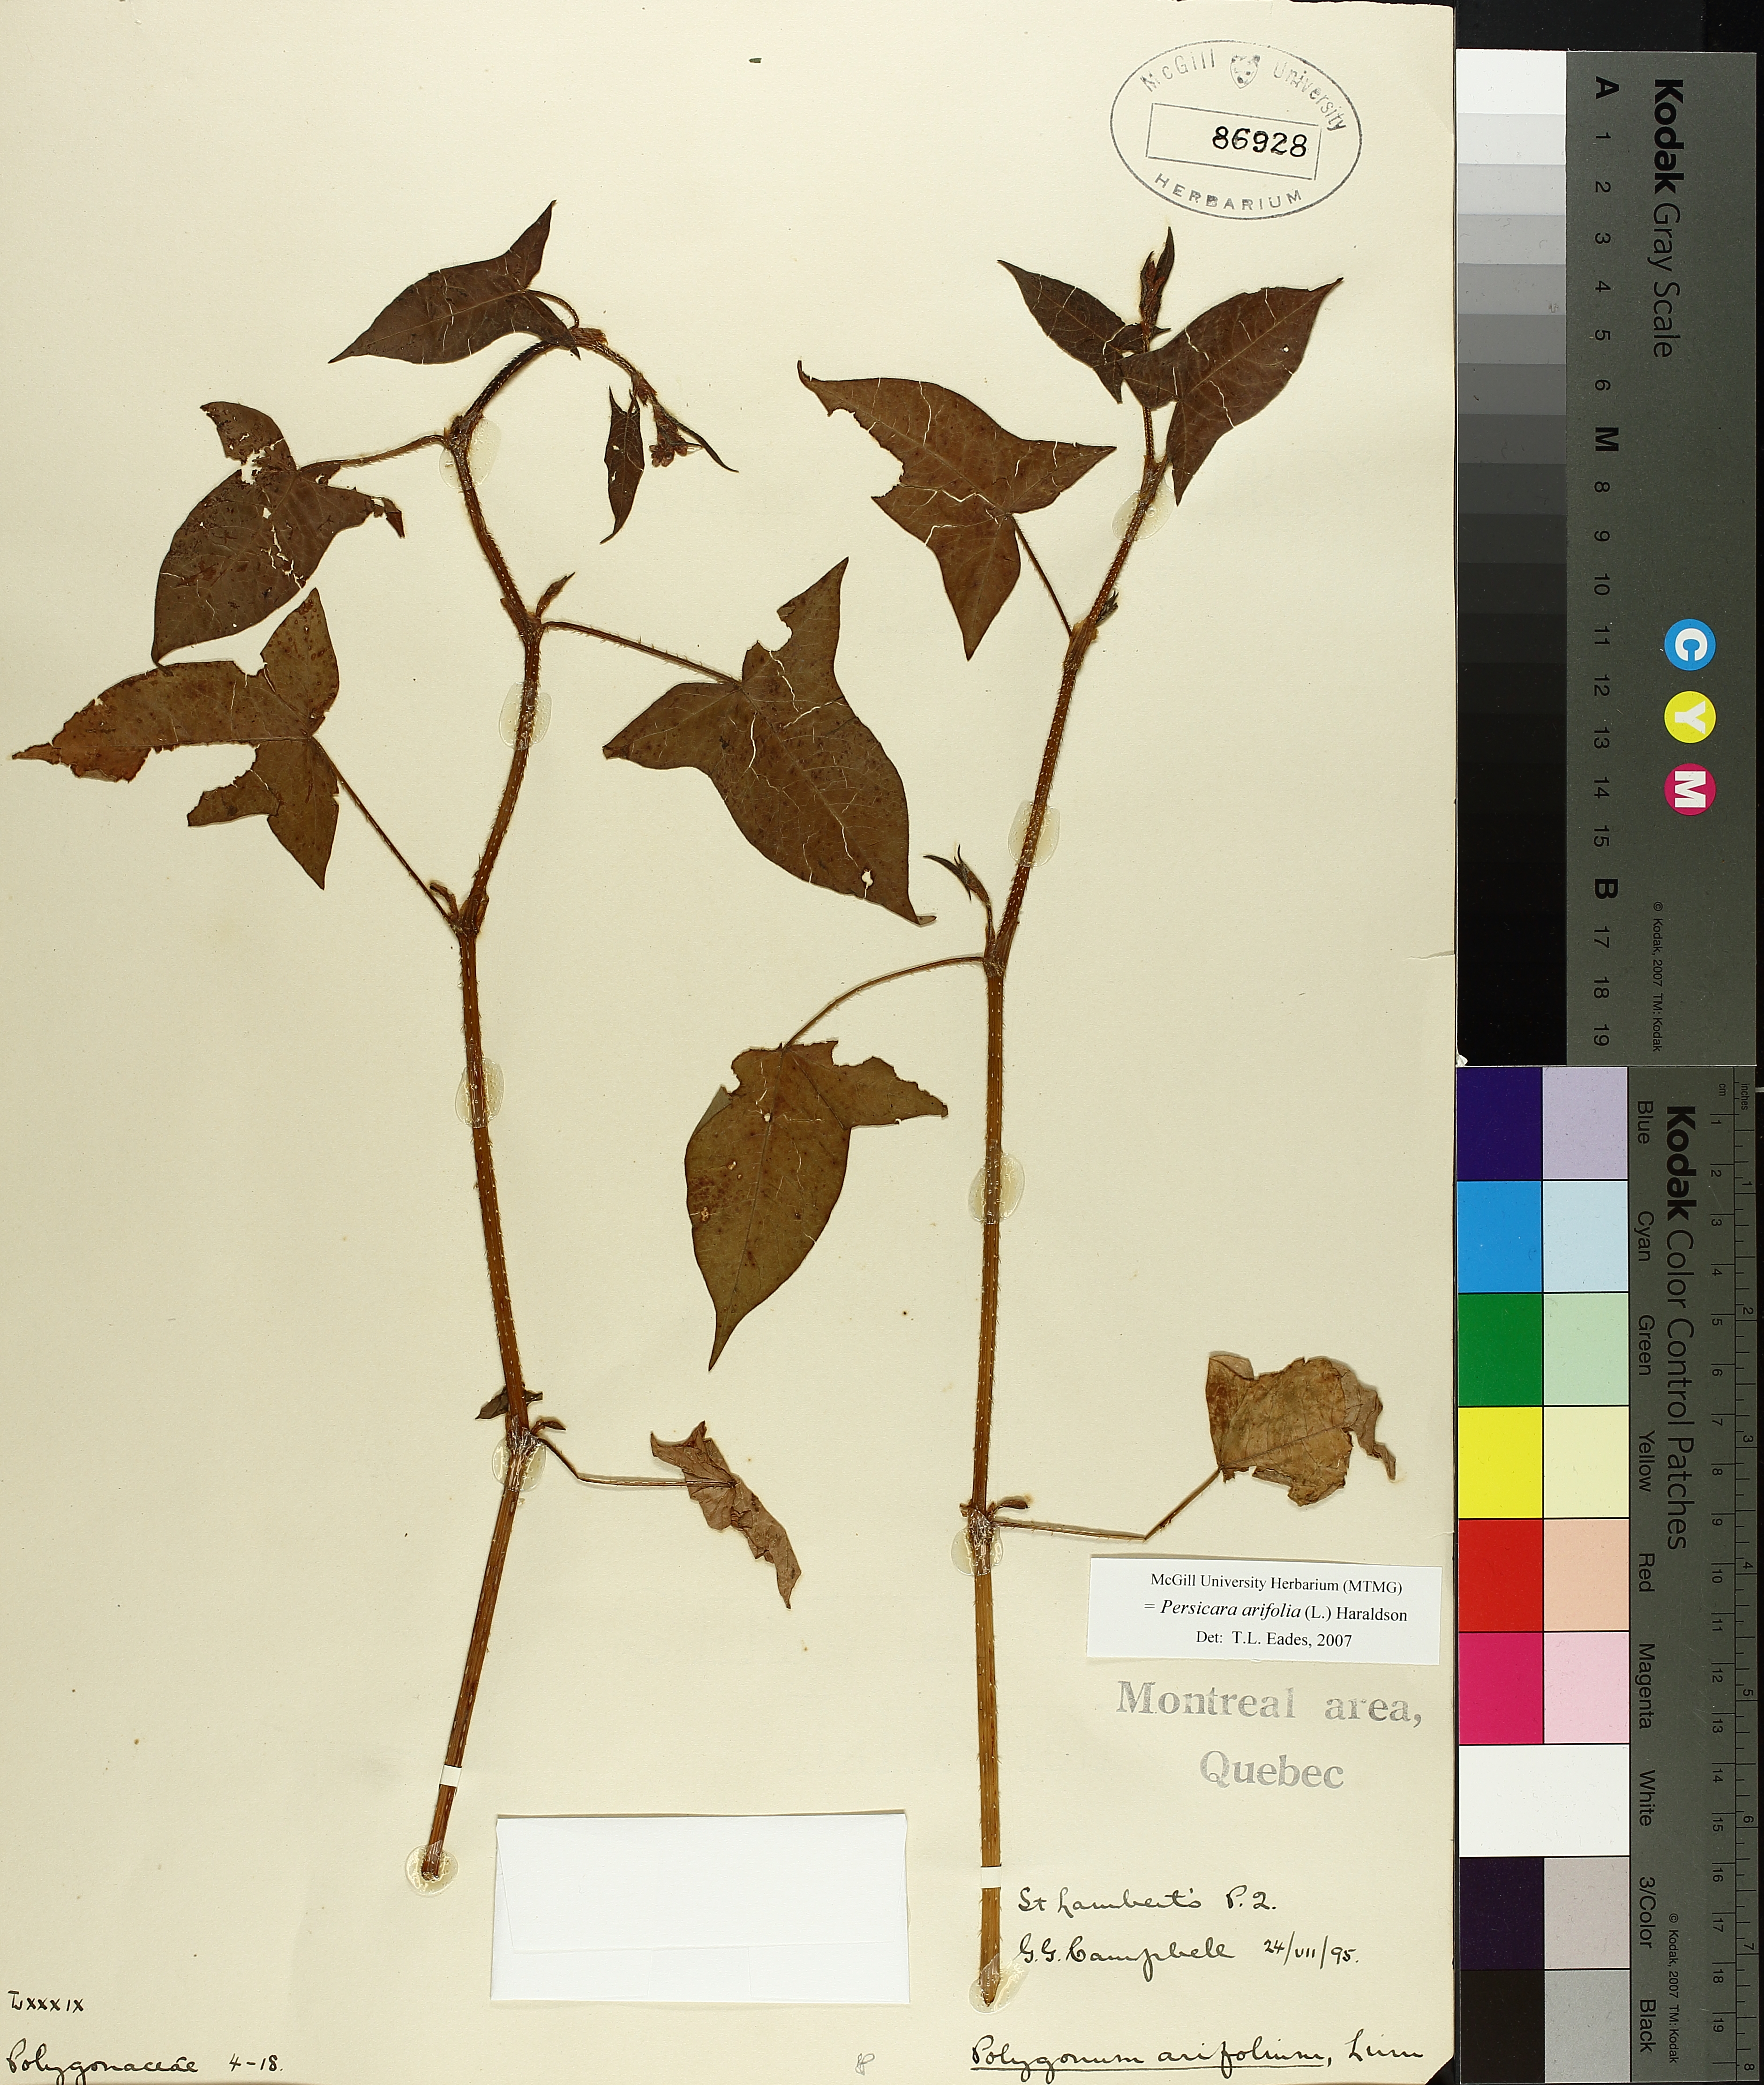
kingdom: Plantae
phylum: Tracheophyta
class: Magnoliopsida
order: Caryophyllales
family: Polygonaceae
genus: Persicaria
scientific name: Persicaria arifolia
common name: Halberd-leaved tear-thumb
